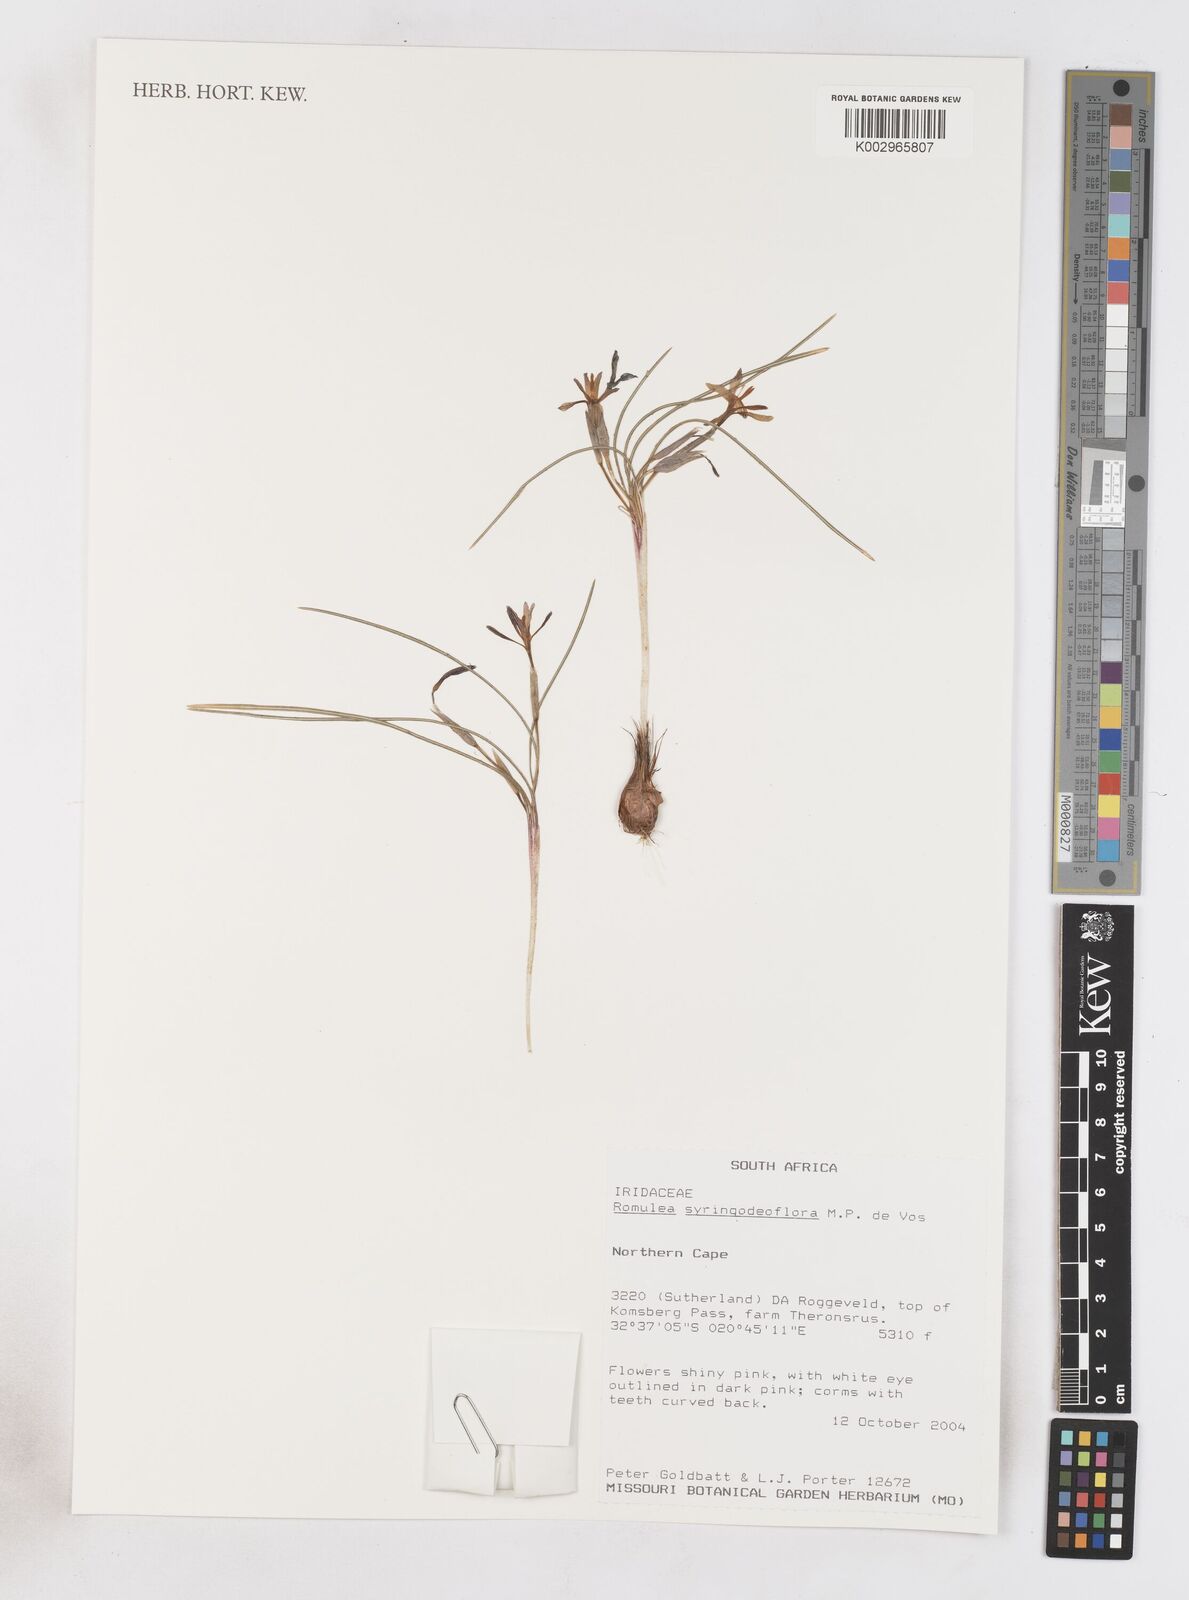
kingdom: Plantae
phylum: Tracheophyta
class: Liliopsida
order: Asparagales
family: Iridaceae
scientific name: Iridaceae
